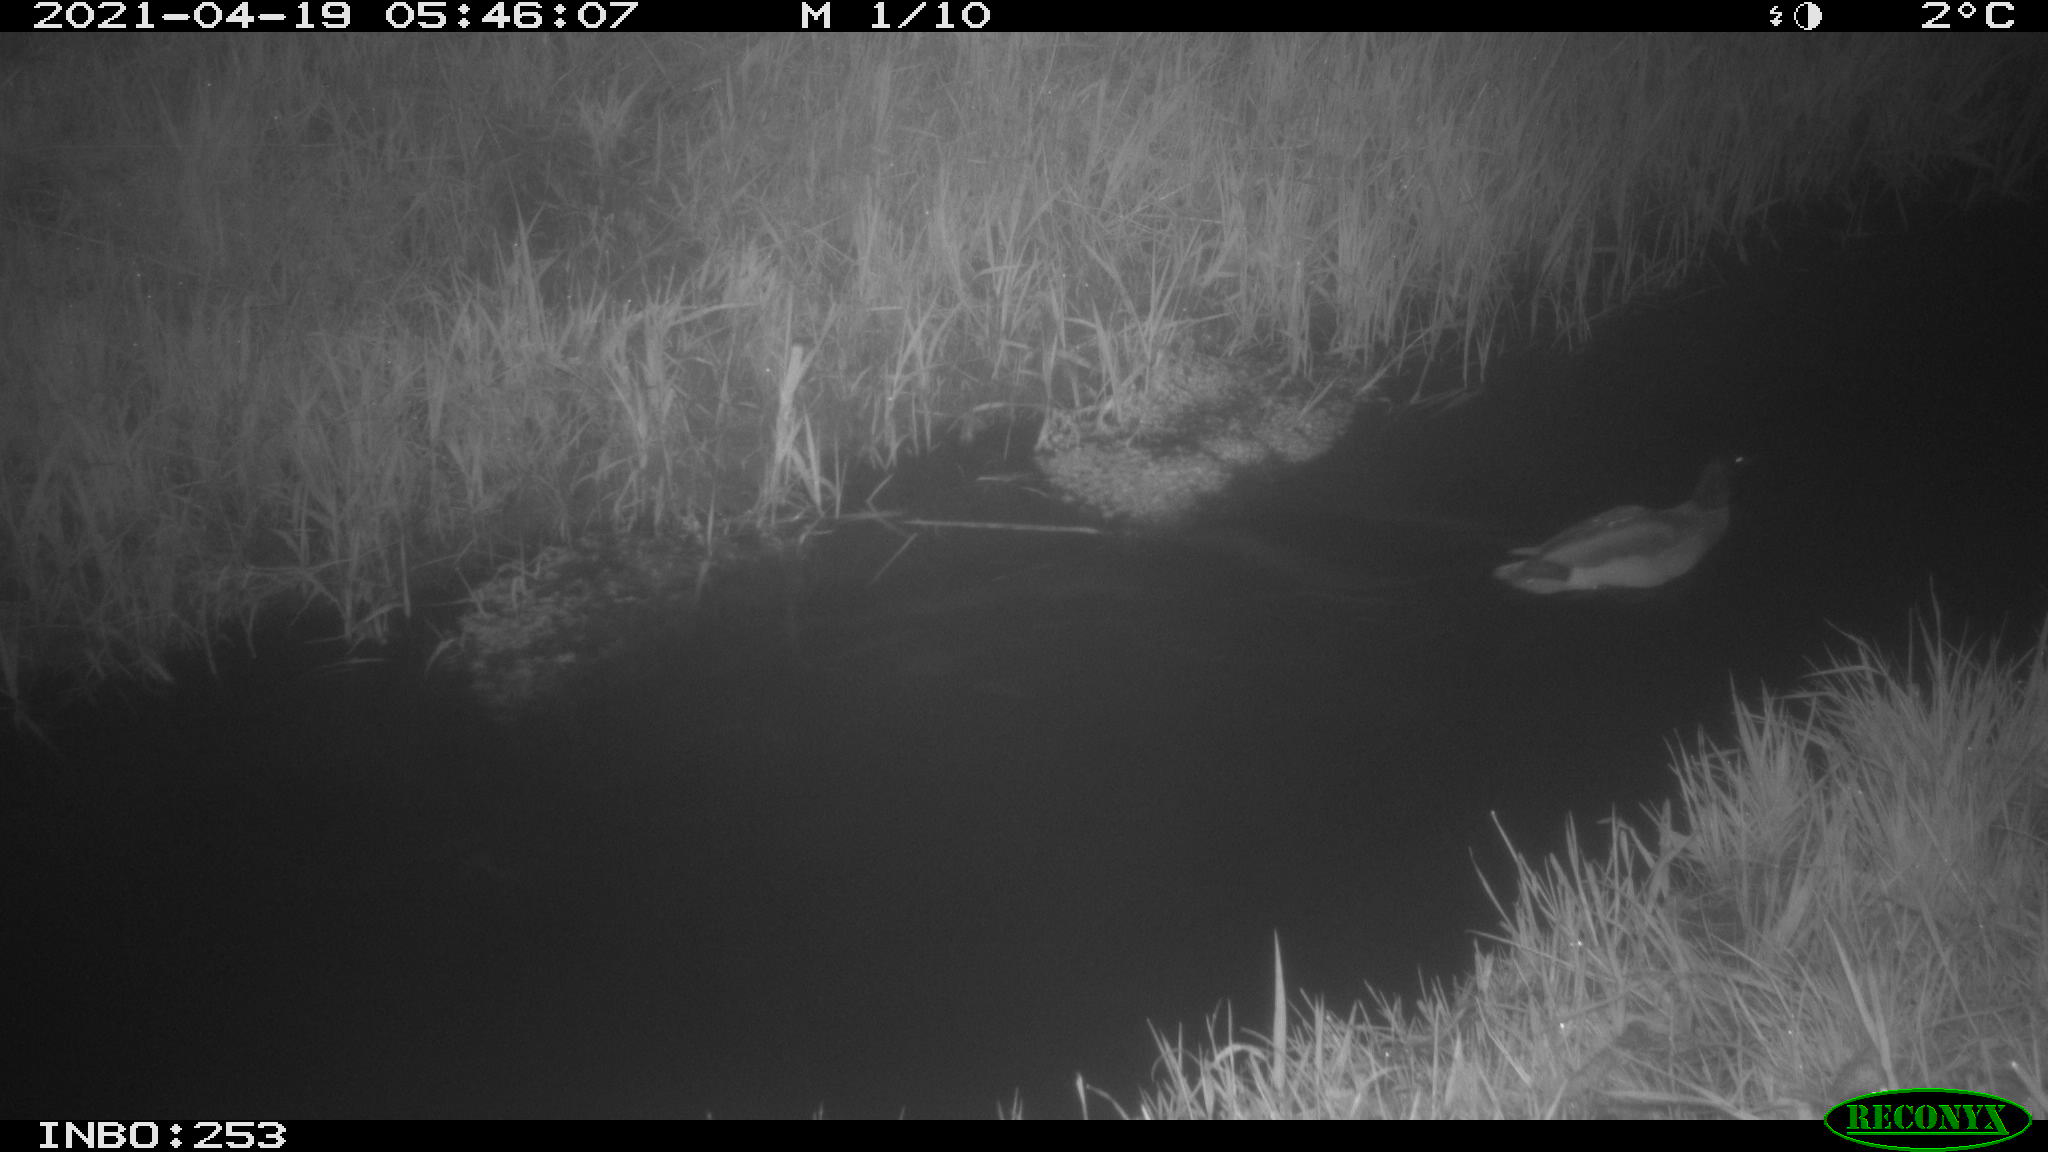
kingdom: Animalia
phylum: Chordata
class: Aves
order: Anseriformes
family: Anatidae
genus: Anas
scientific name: Anas platyrhynchos
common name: Mallard
